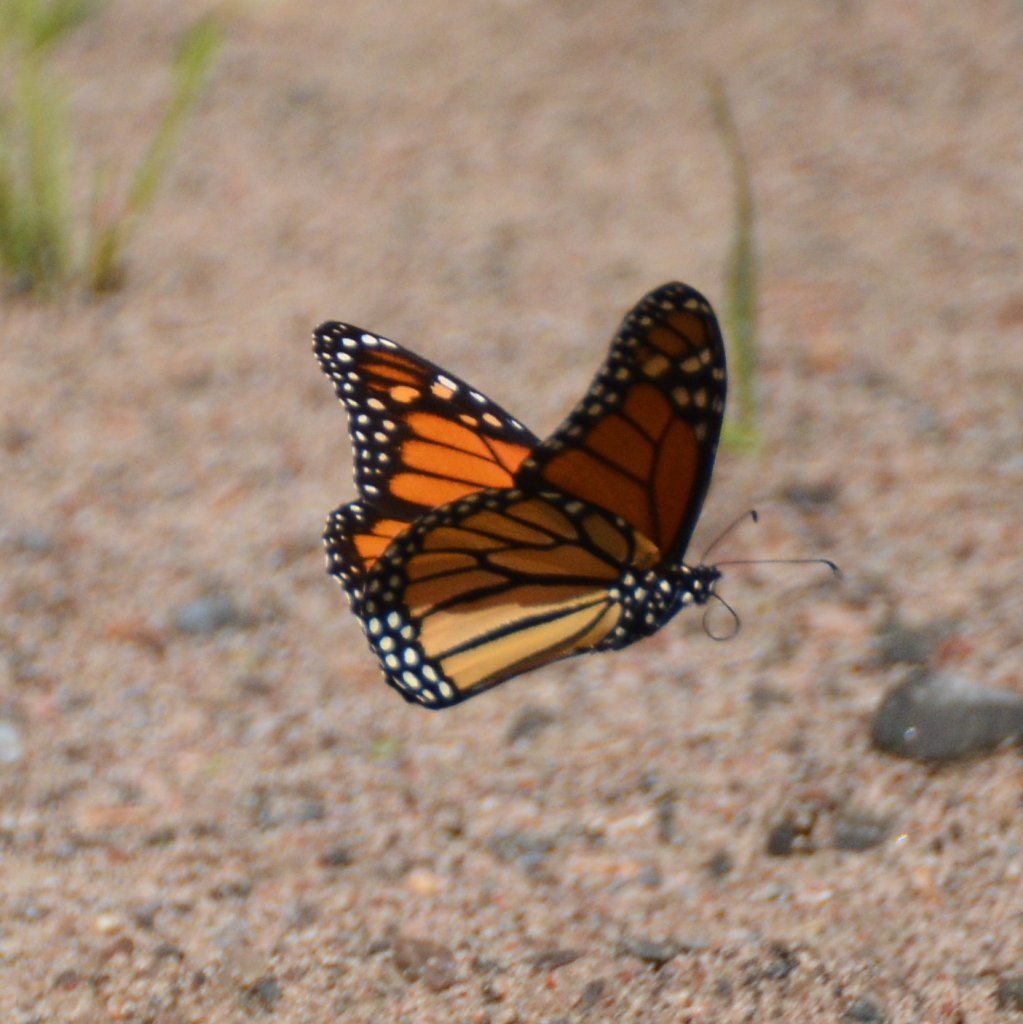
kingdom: Animalia
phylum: Arthropoda
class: Insecta
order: Lepidoptera
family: Nymphalidae
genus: Danaus
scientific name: Danaus plexippus
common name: Monarch
